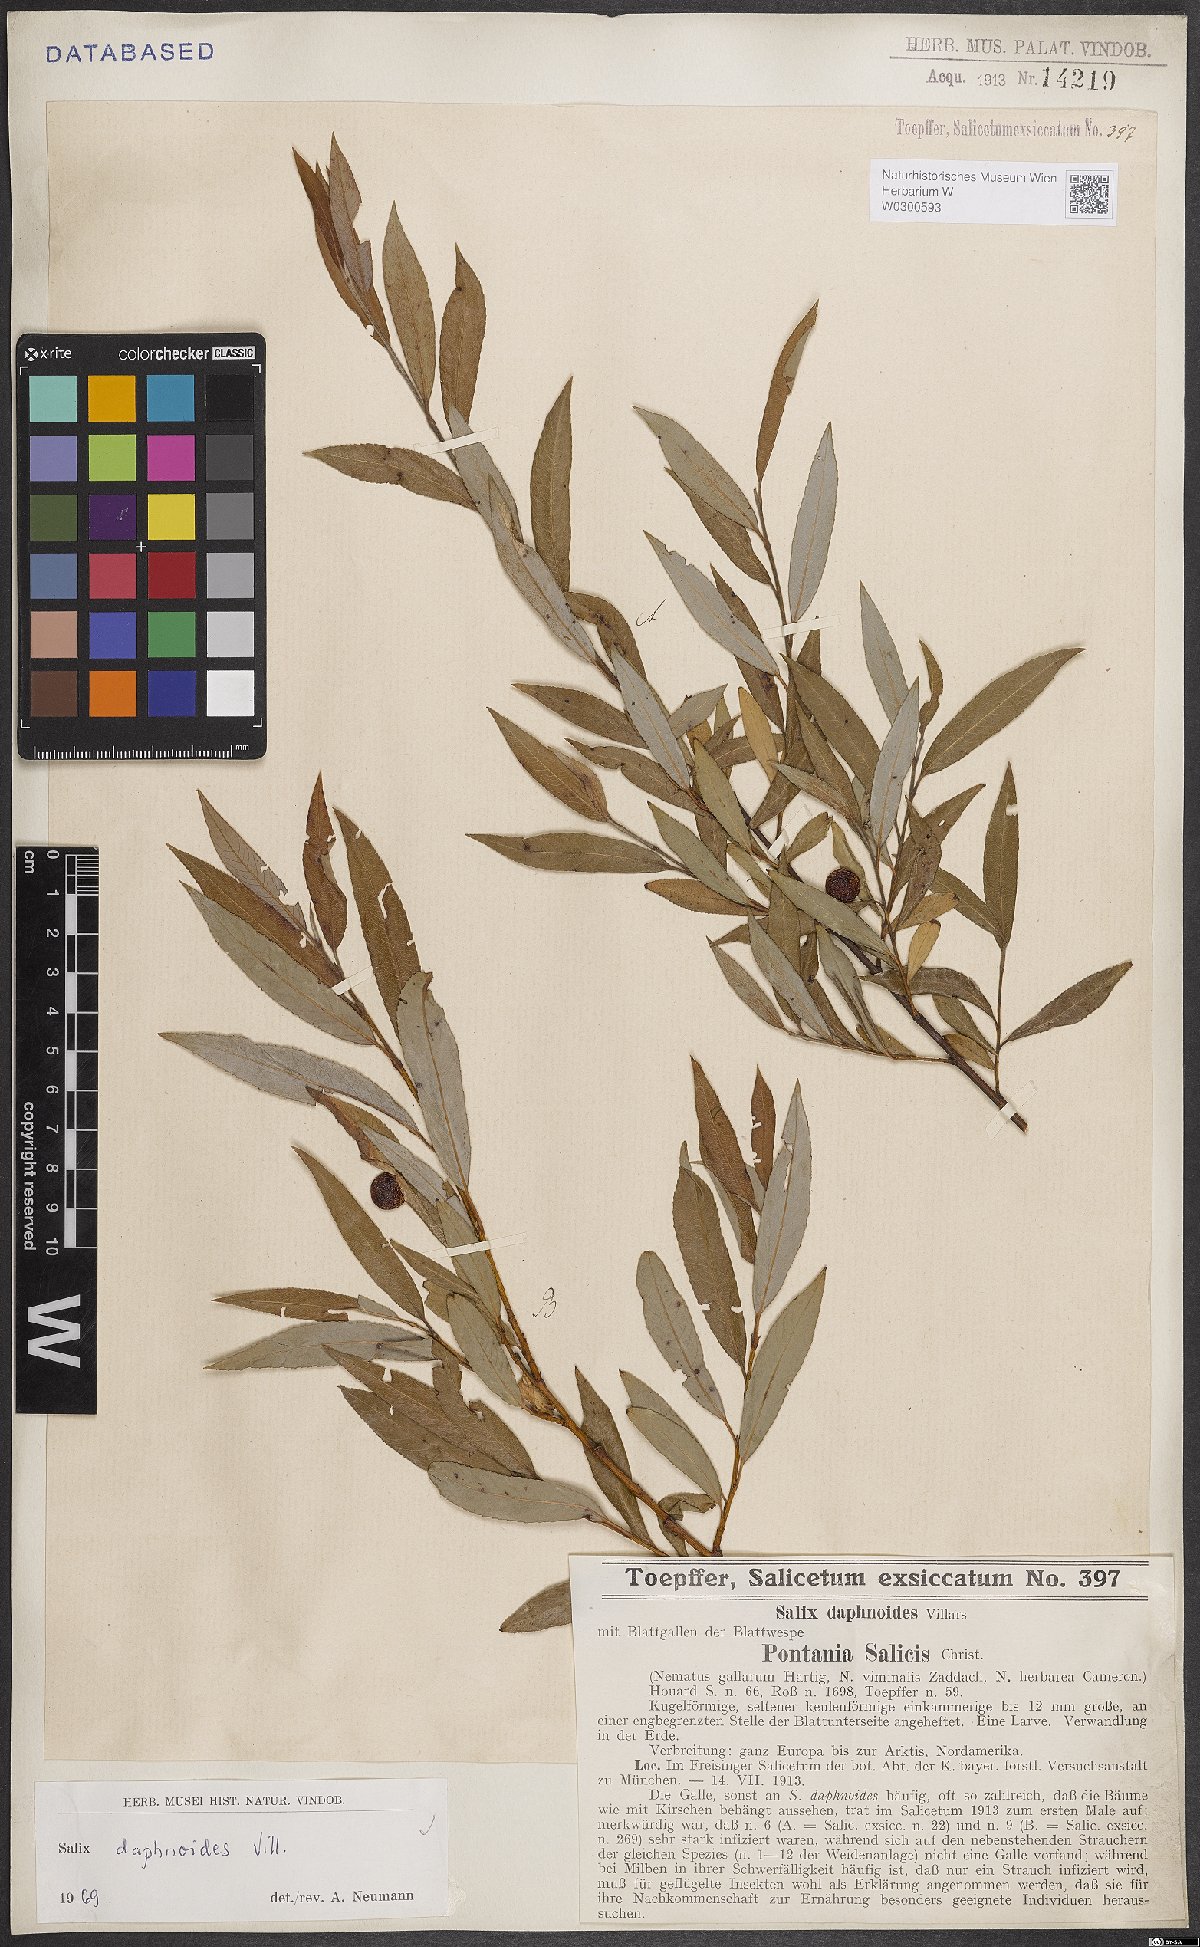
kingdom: Plantae
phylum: Tracheophyta
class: Magnoliopsida
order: Malpighiales
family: Salicaceae
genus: Salix
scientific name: Salix daphnoides
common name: European violet-willow
